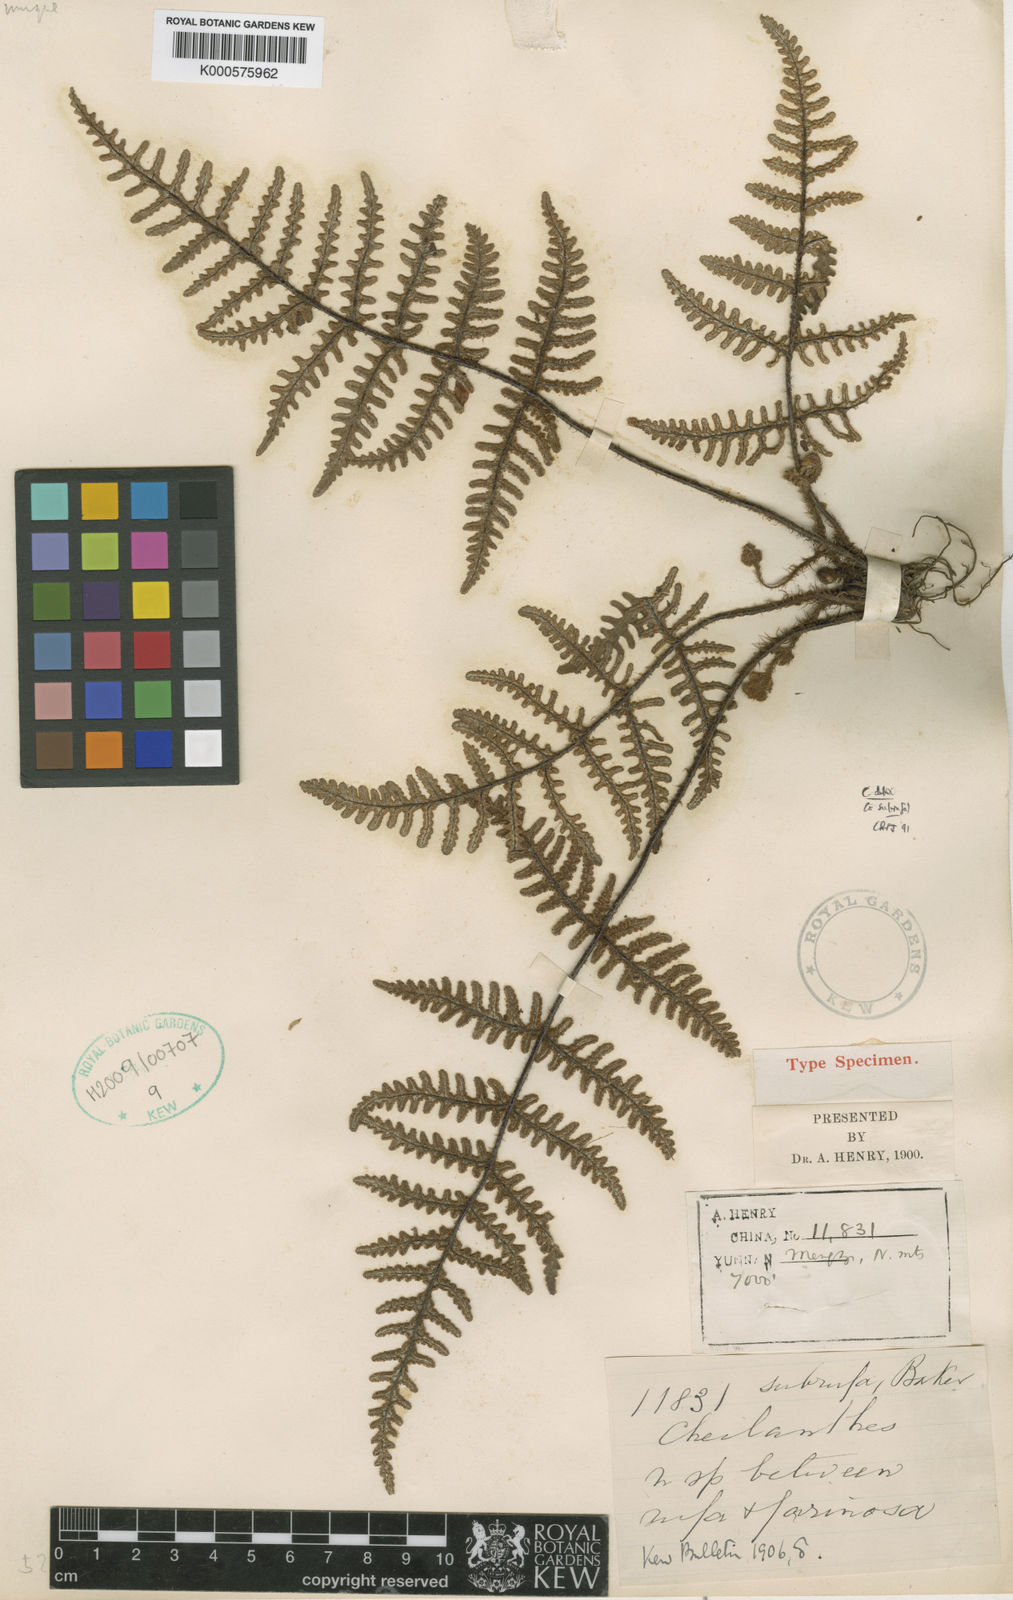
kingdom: Plantae
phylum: Tracheophyta
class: Polypodiopsida
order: Polypodiales
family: Pteridaceae
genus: Aleuritopteris
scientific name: Aleuritopteris dubia
